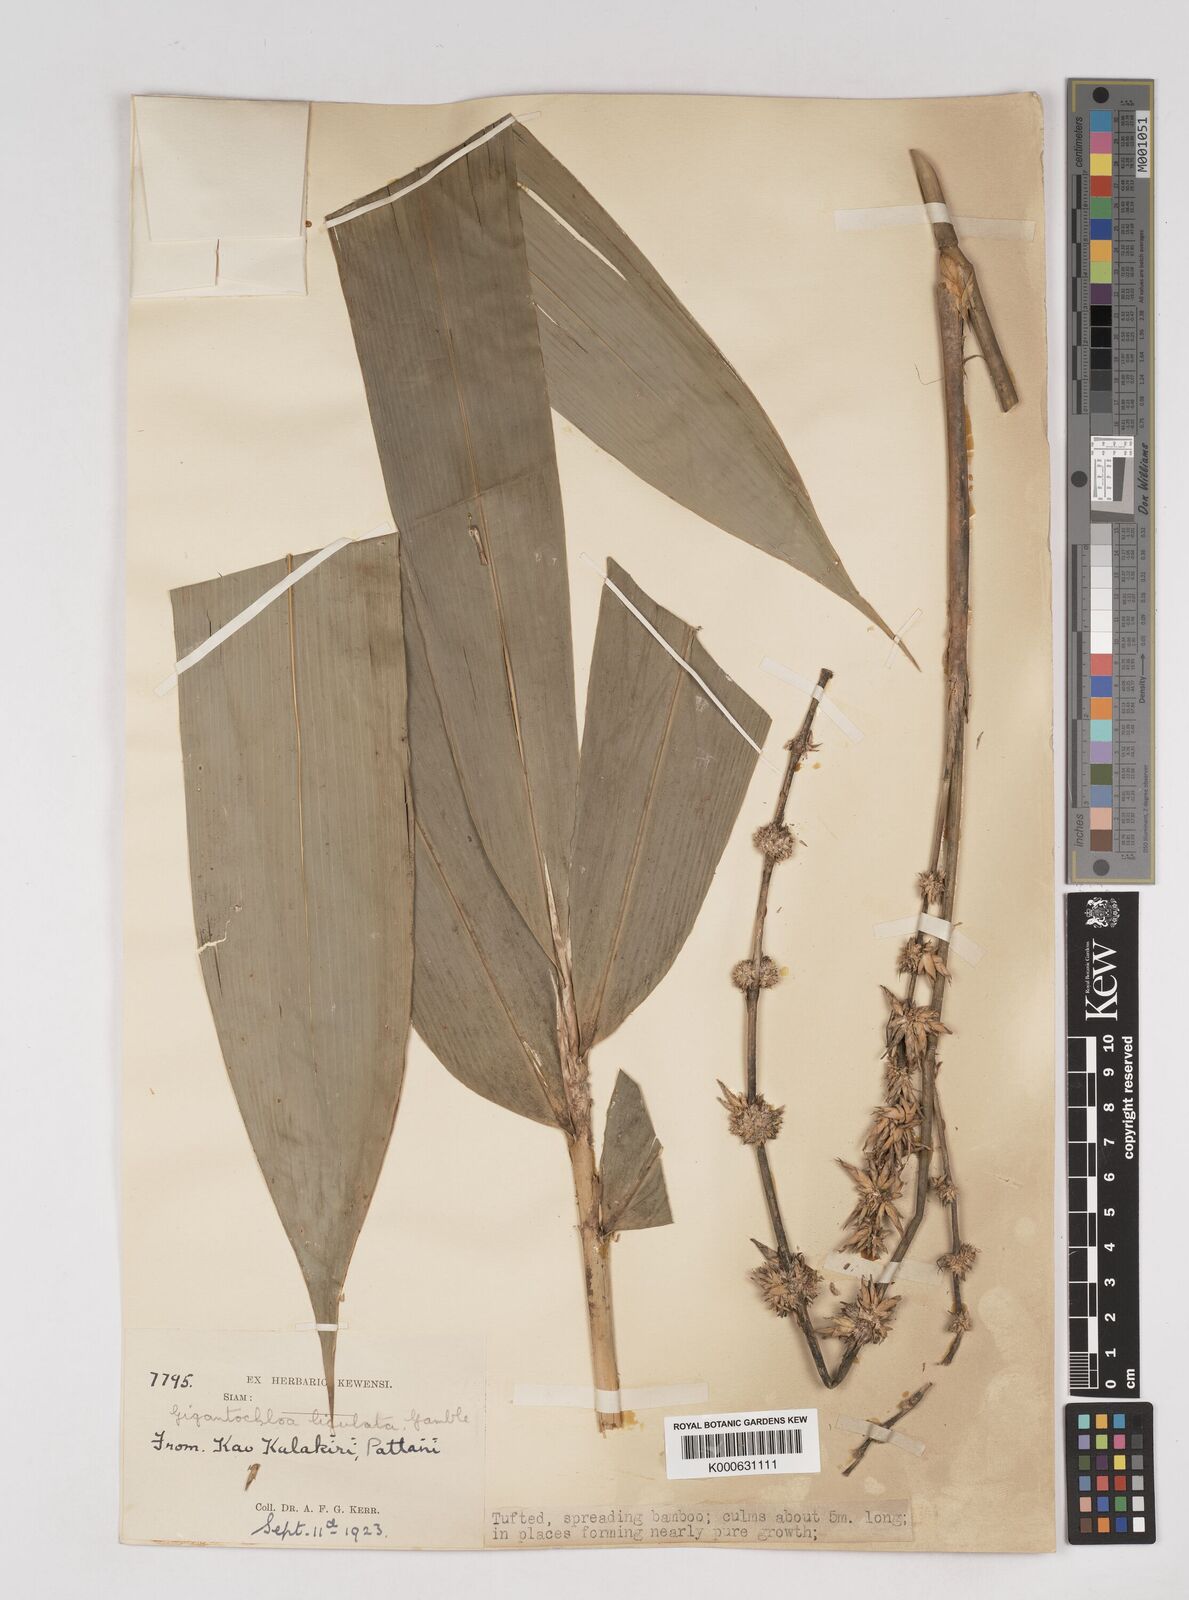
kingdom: Plantae
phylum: Tracheophyta
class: Liliopsida
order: Poales
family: Poaceae
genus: Gigantochloa
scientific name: Gigantochloa ligulata
